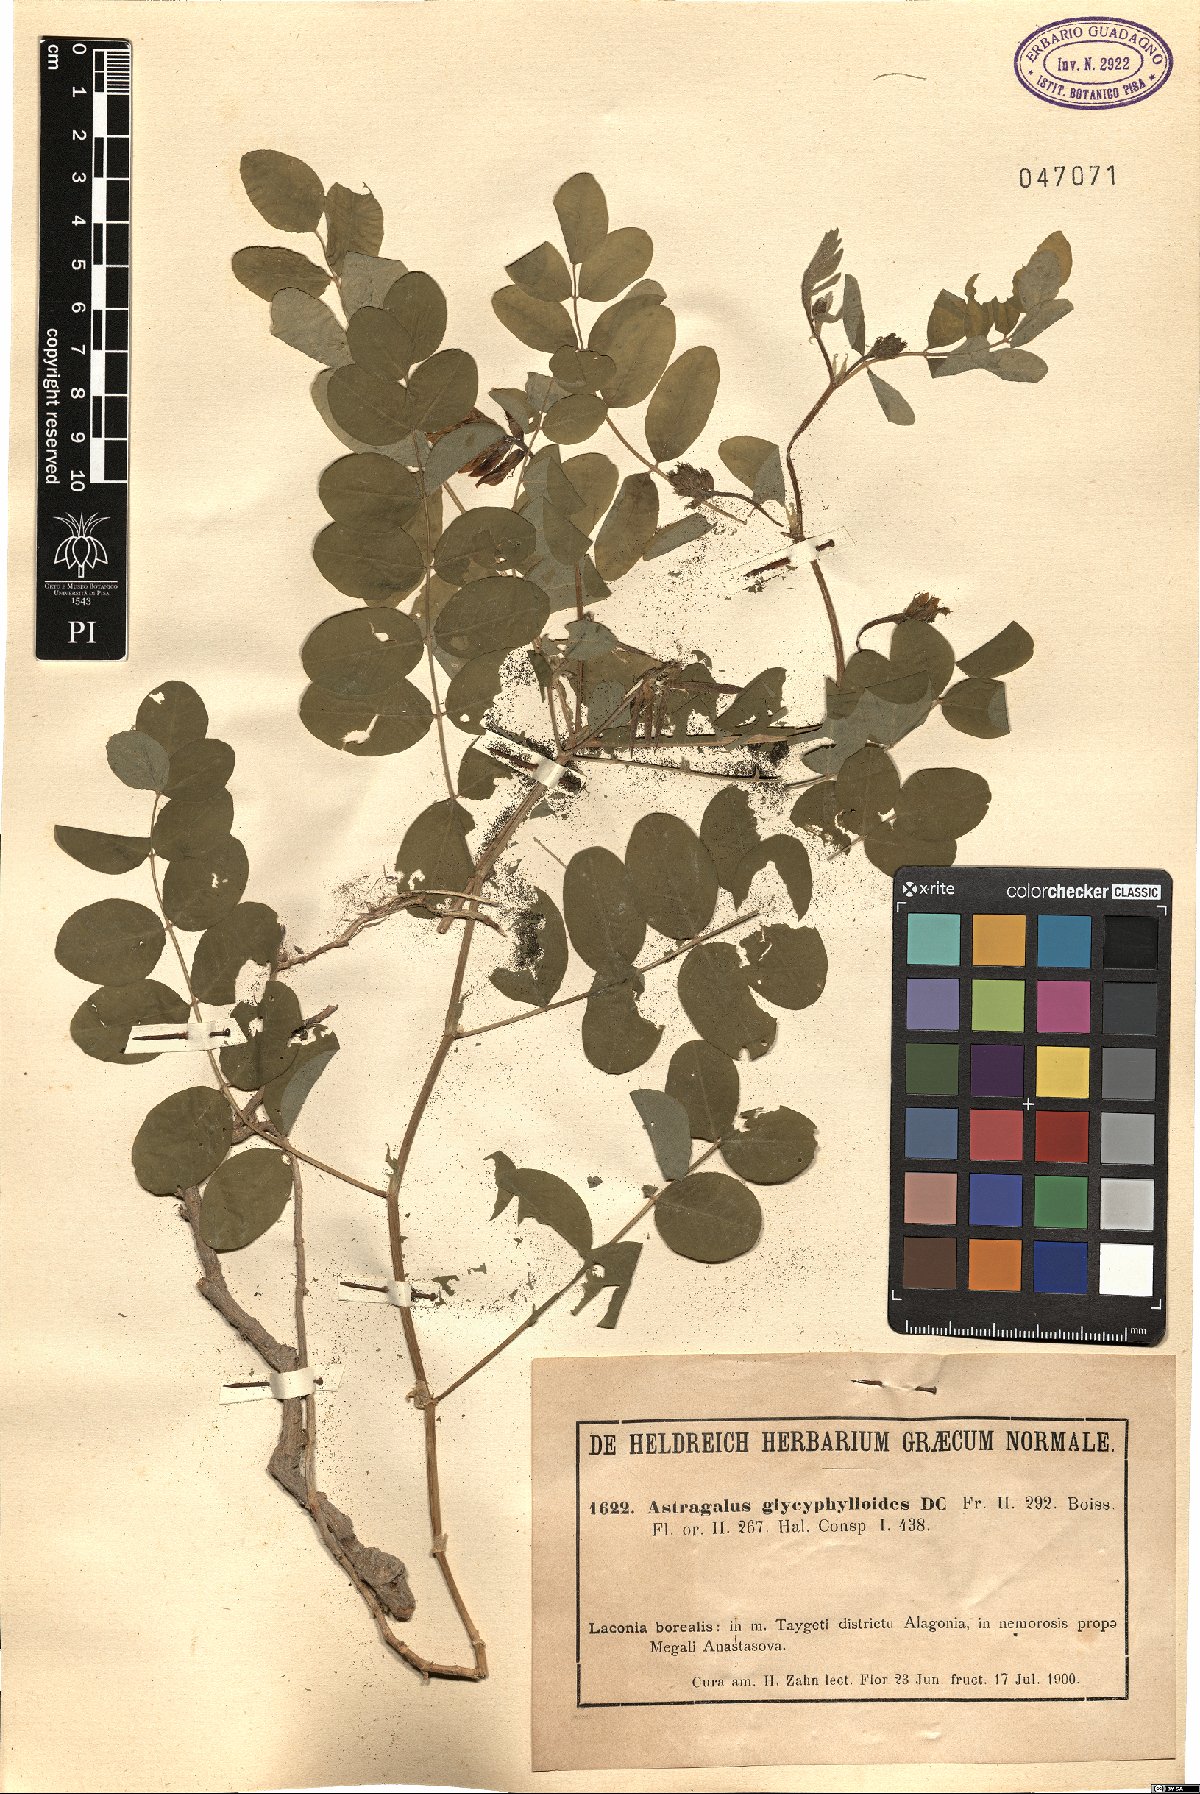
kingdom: Plantae
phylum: Tracheophyta
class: Magnoliopsida
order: Fabales
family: Fabaceae
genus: Astragalus
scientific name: Astragalus glycyphylloides
